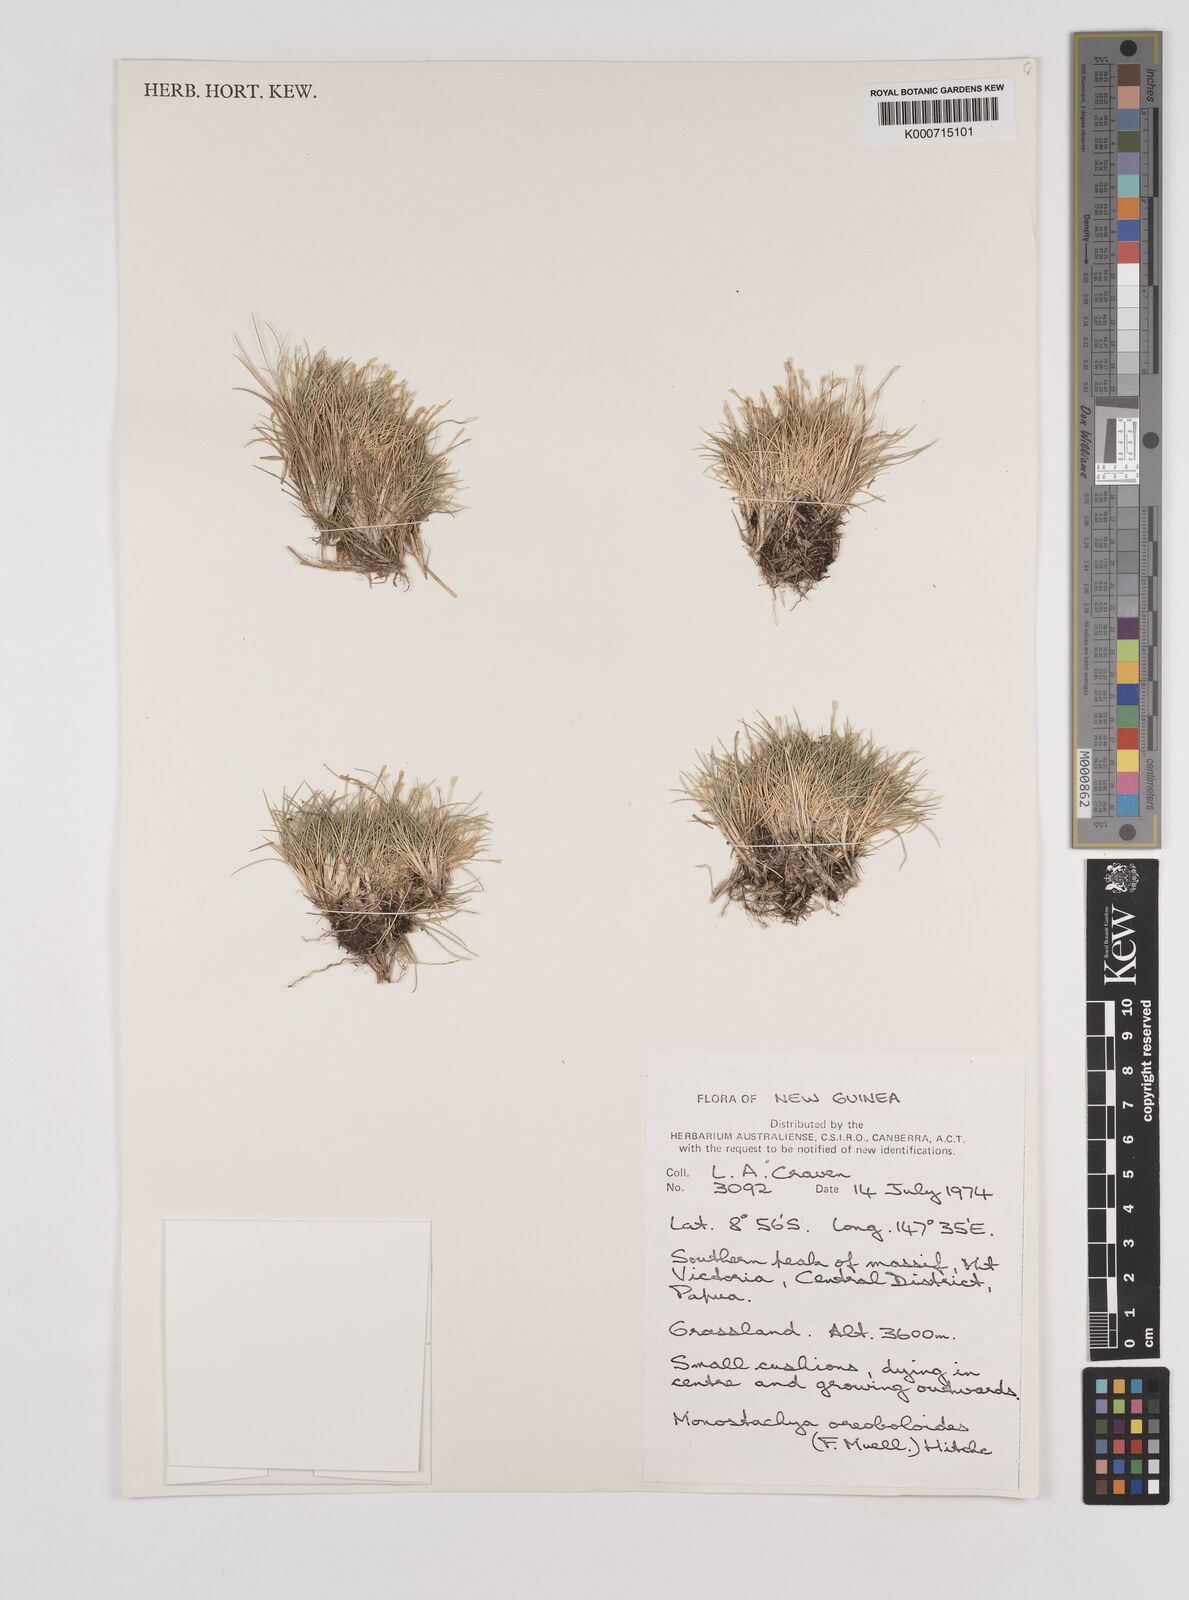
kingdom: Plantae
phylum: Tracheophyta
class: Liliopsida
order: Poales
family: Poaceae
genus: Rytidosperma
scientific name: Rytidosperma oreoboloides
